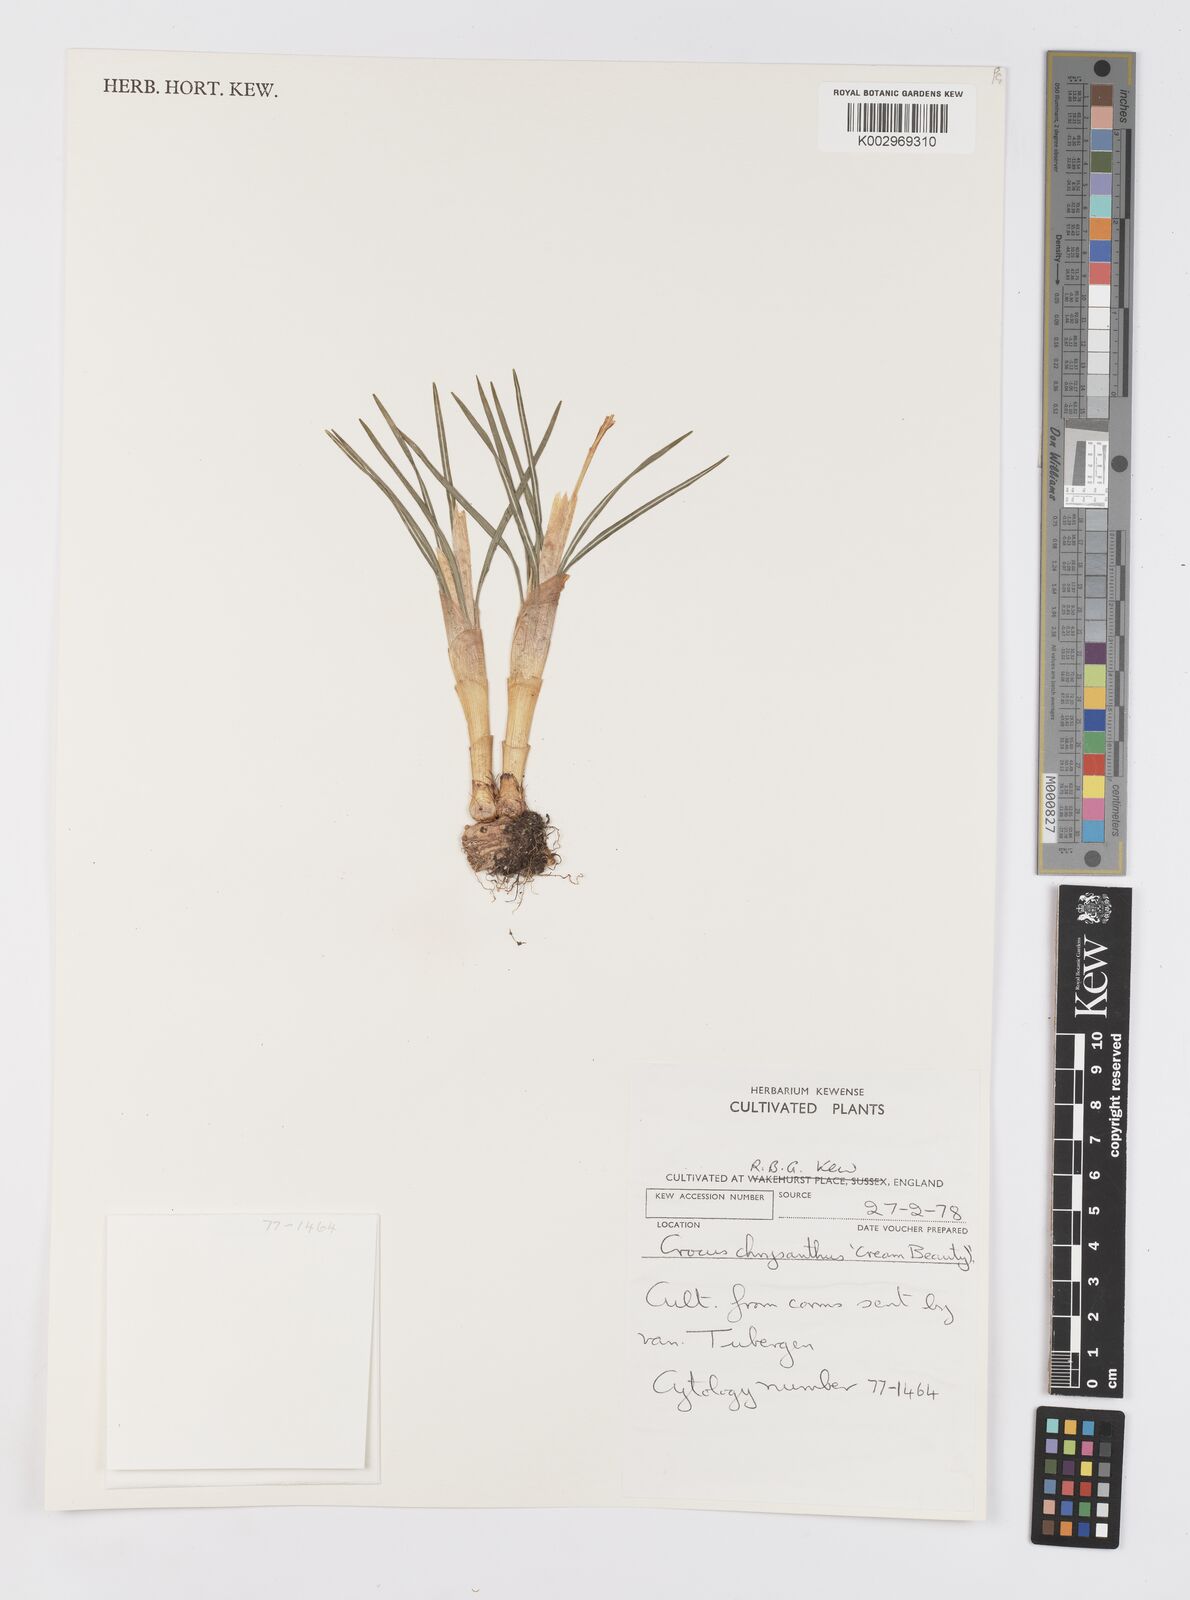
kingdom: Plantae
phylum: Tracheophyta
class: Liliopsida
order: Asparagales
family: Iridaceae
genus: Crocus
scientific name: Crocus chrysanthus
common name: Golden crocus
